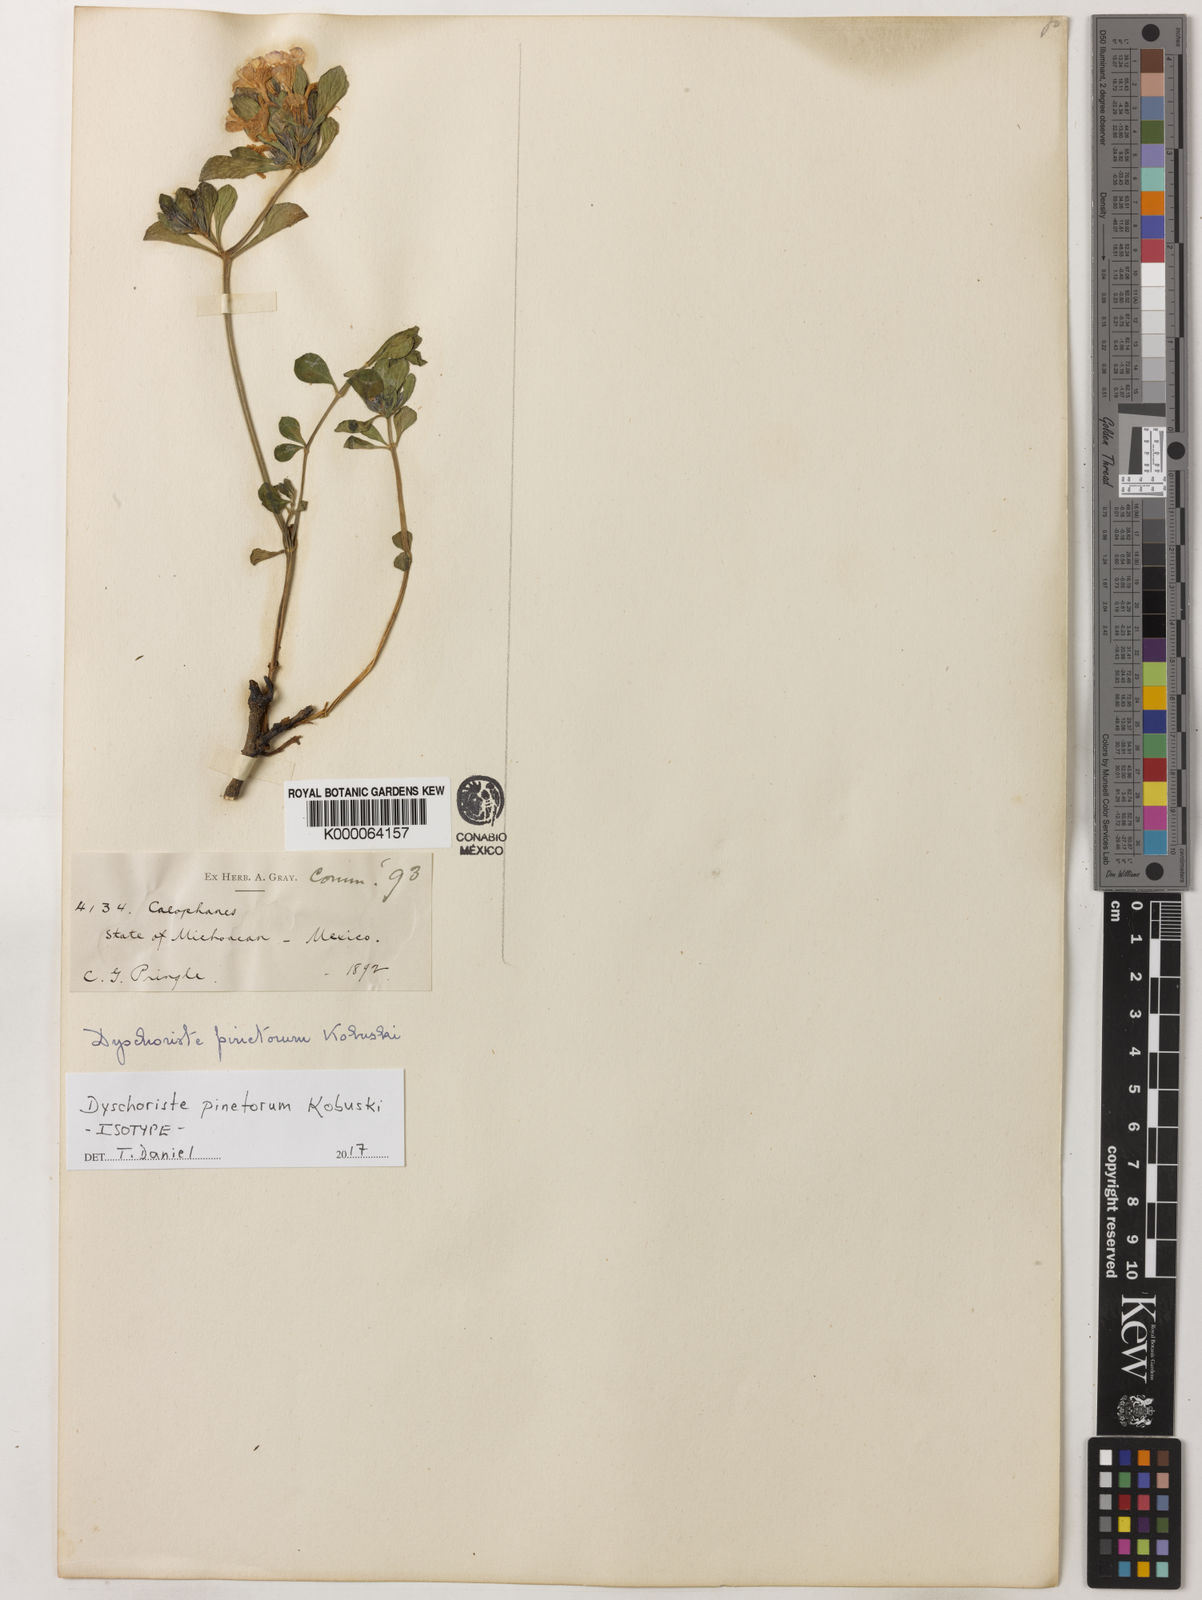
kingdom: Plantae
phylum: Tracheophyta
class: Magnoliopsida
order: Lamiales
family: Acanthaceae
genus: Dyschoriste
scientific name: Dyschoriste pinetorum
